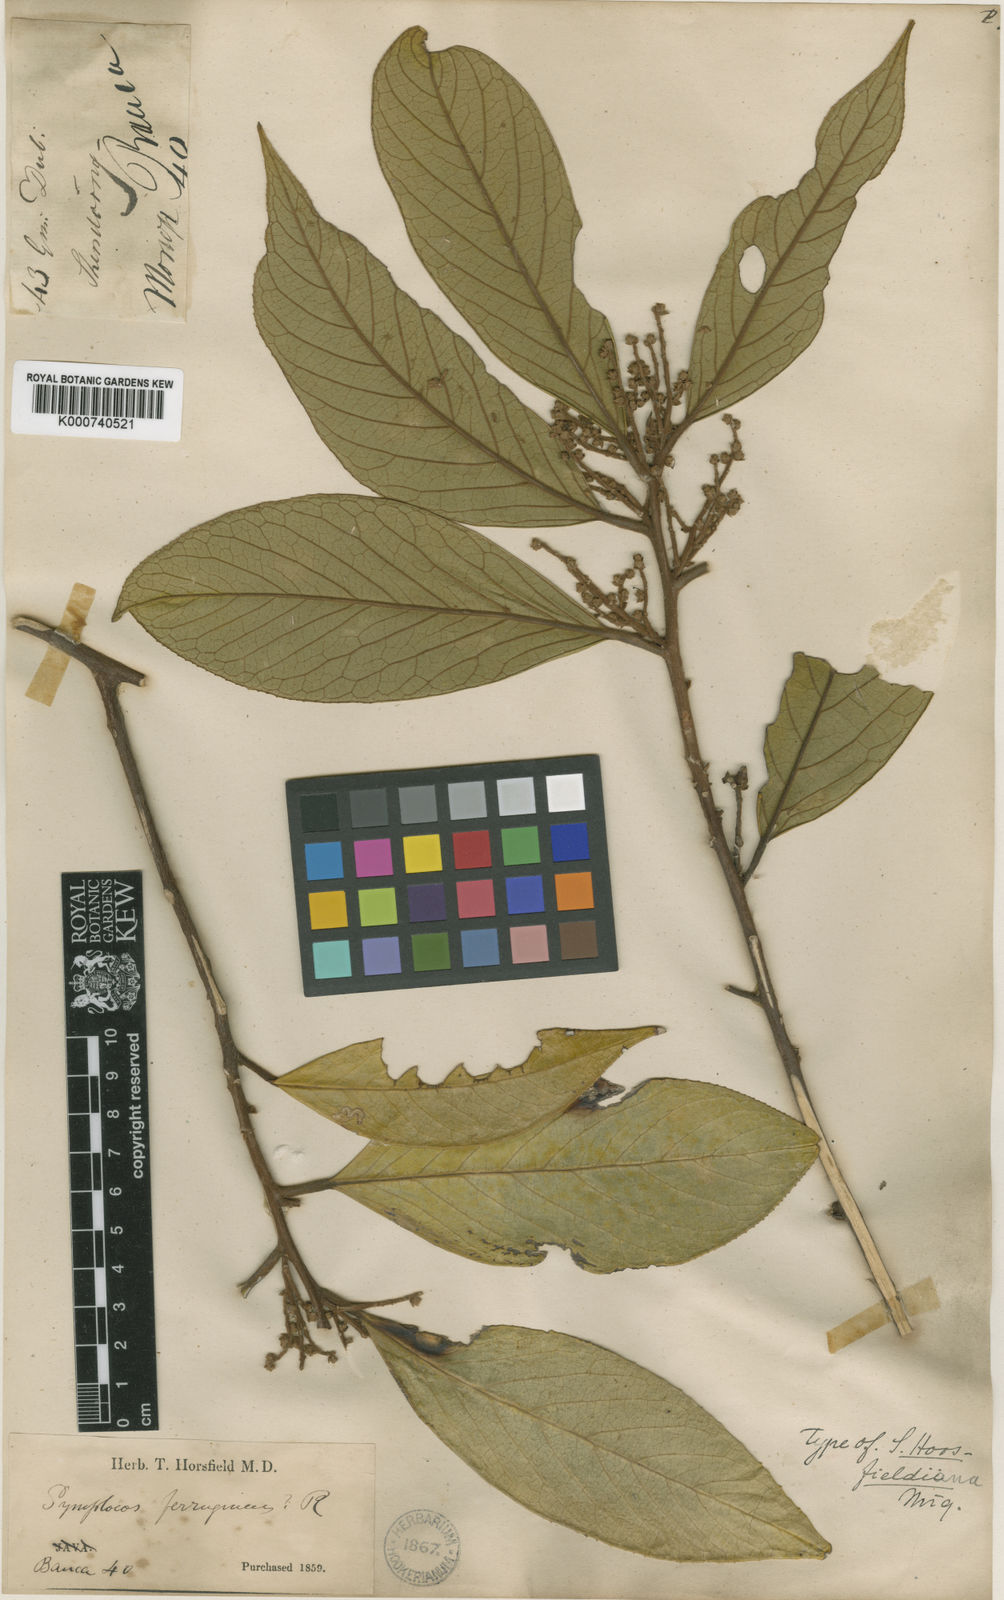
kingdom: Plantae
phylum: Tracheophyta
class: Magnoliopsida
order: Ericales
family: Symplocaceae
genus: Symplocos
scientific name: Symplocos cochinchinensis
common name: Buff hazelwood
